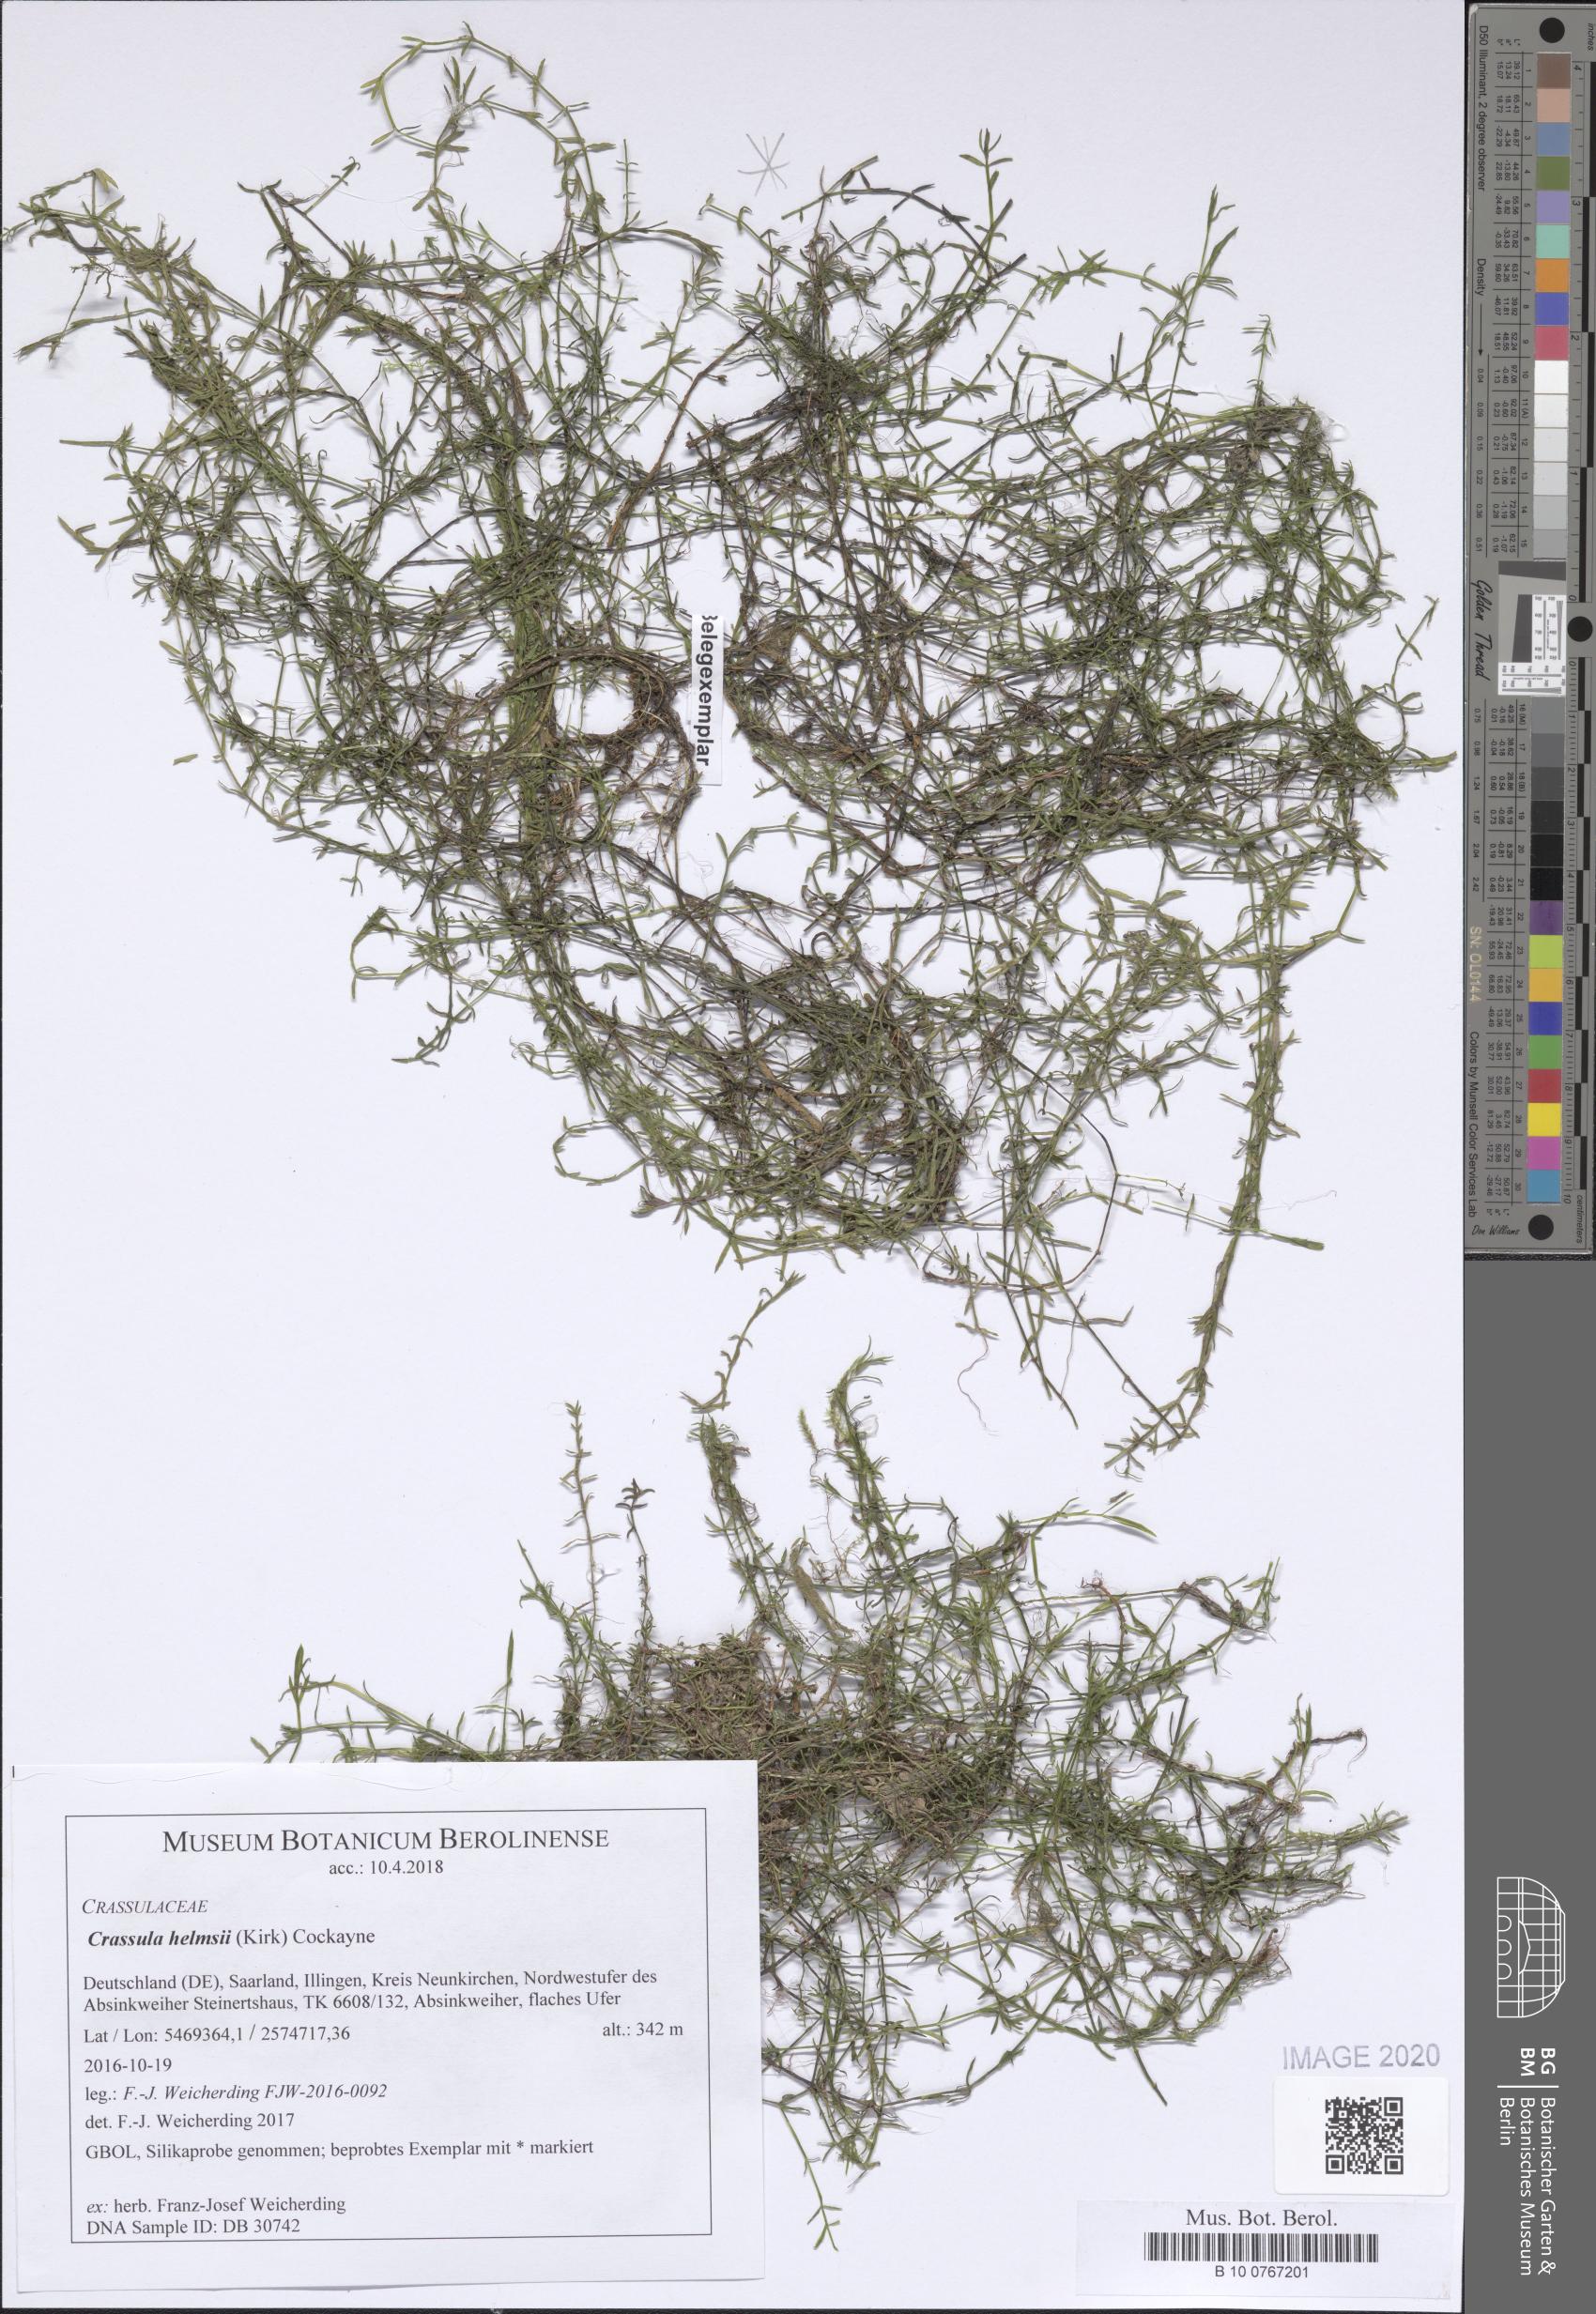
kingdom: Plantae
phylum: Tracheophyta
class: Magnoliopsida
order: Saxifragales
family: Crassulaceae
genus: Crassula
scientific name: Crassula helmsii
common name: New zealand pigmyweed
